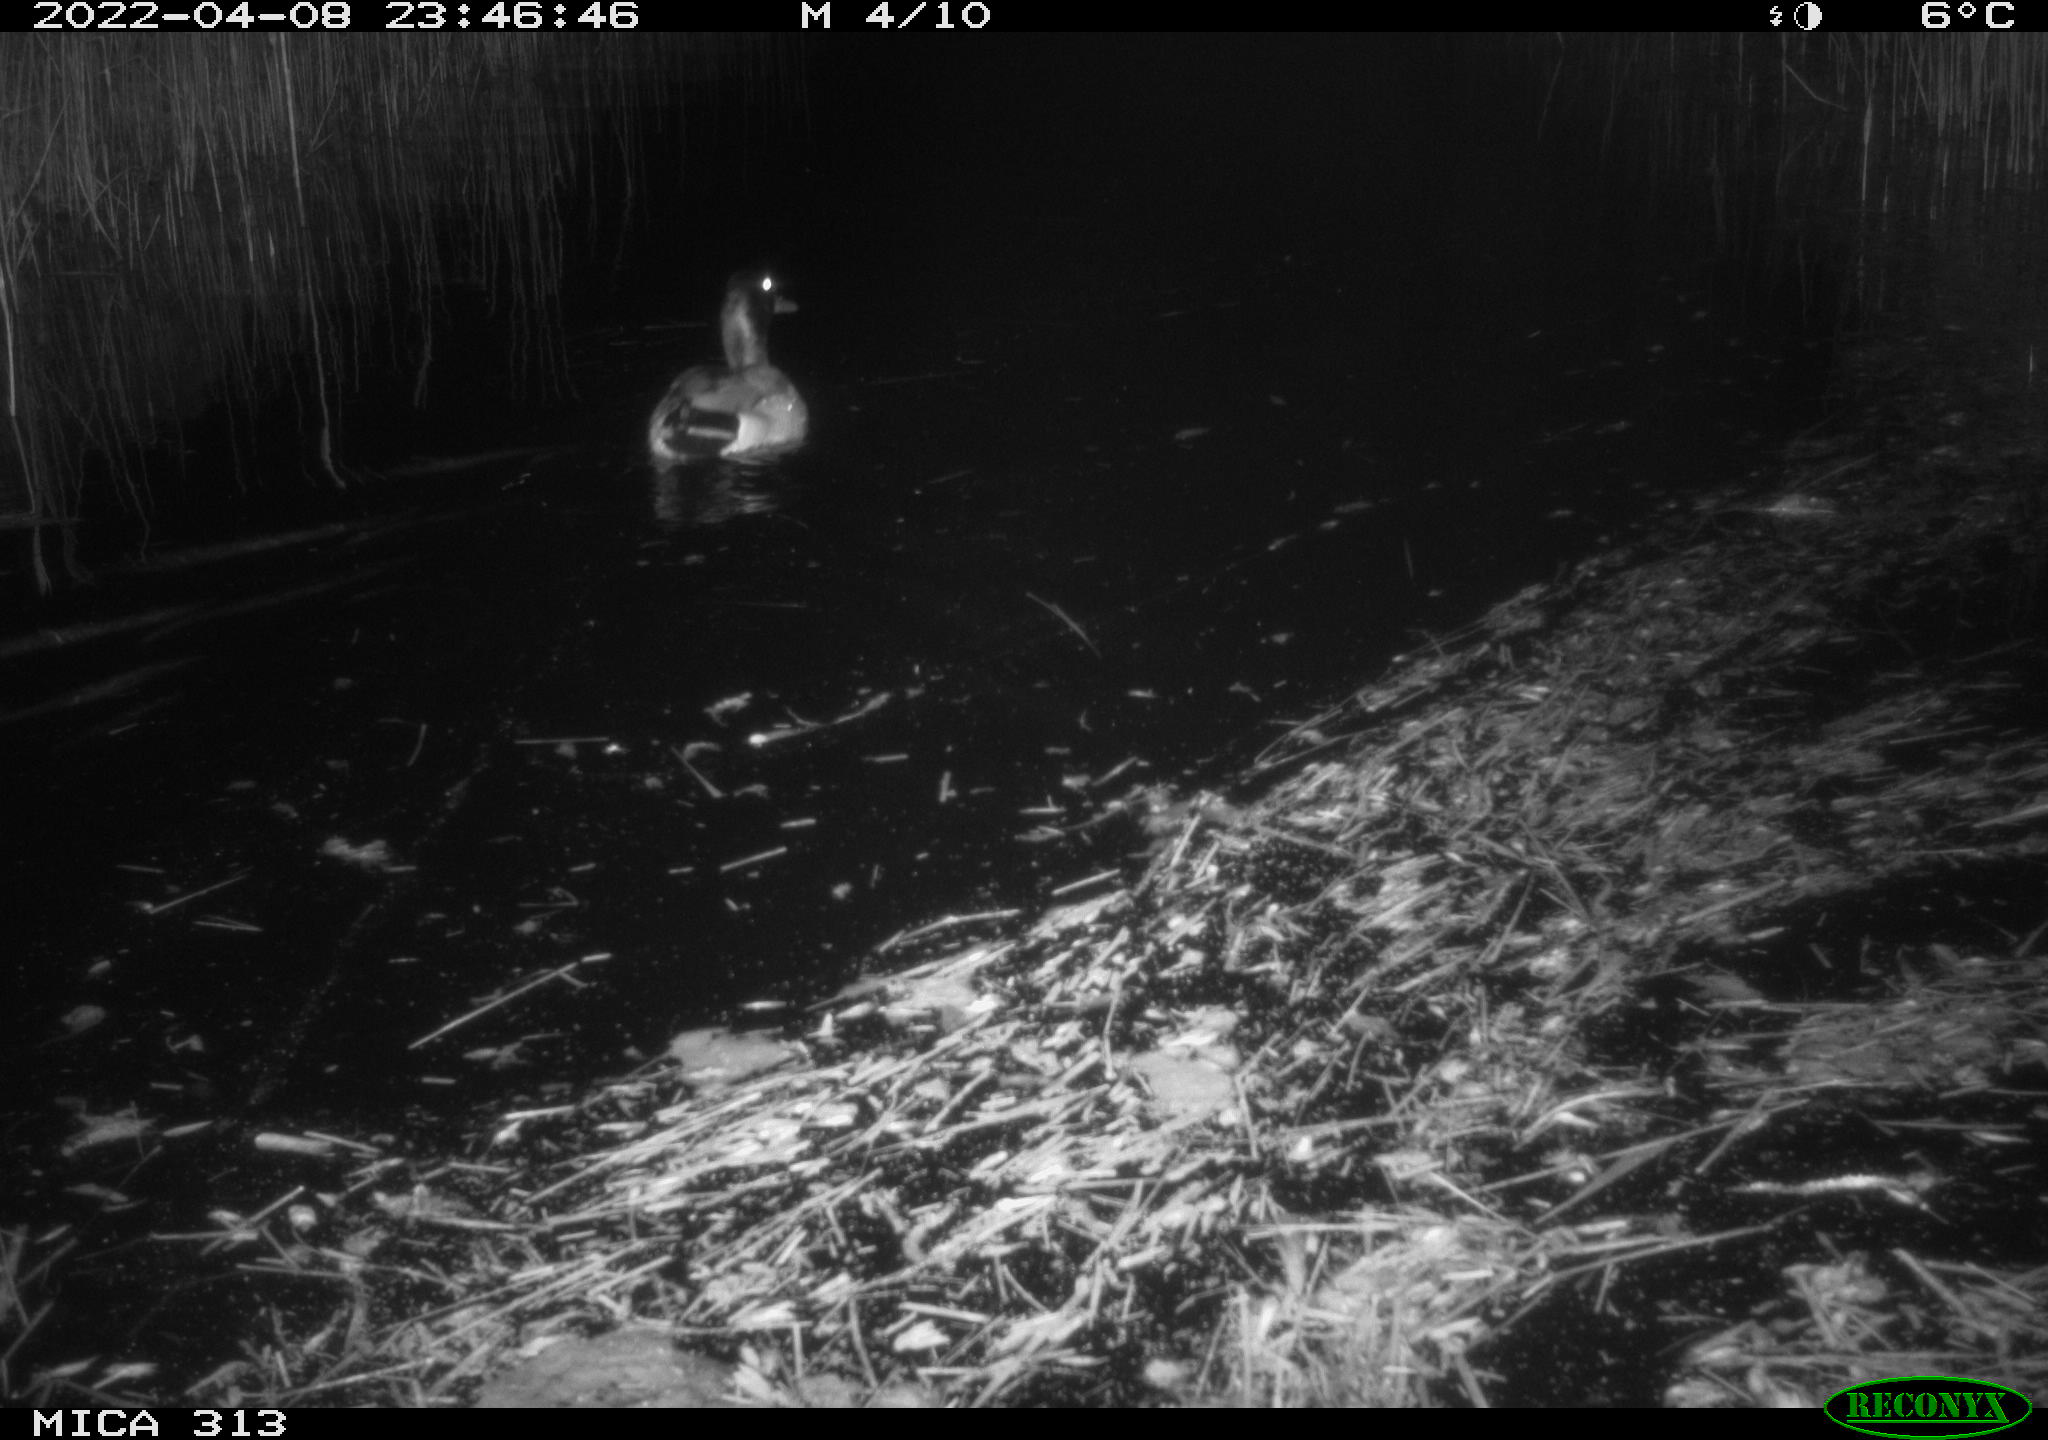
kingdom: Animalia
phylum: Chordata
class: Aves
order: Anseriformes
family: Anatidae
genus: Anas
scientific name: Anas platyrhynchos
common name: Mallard
